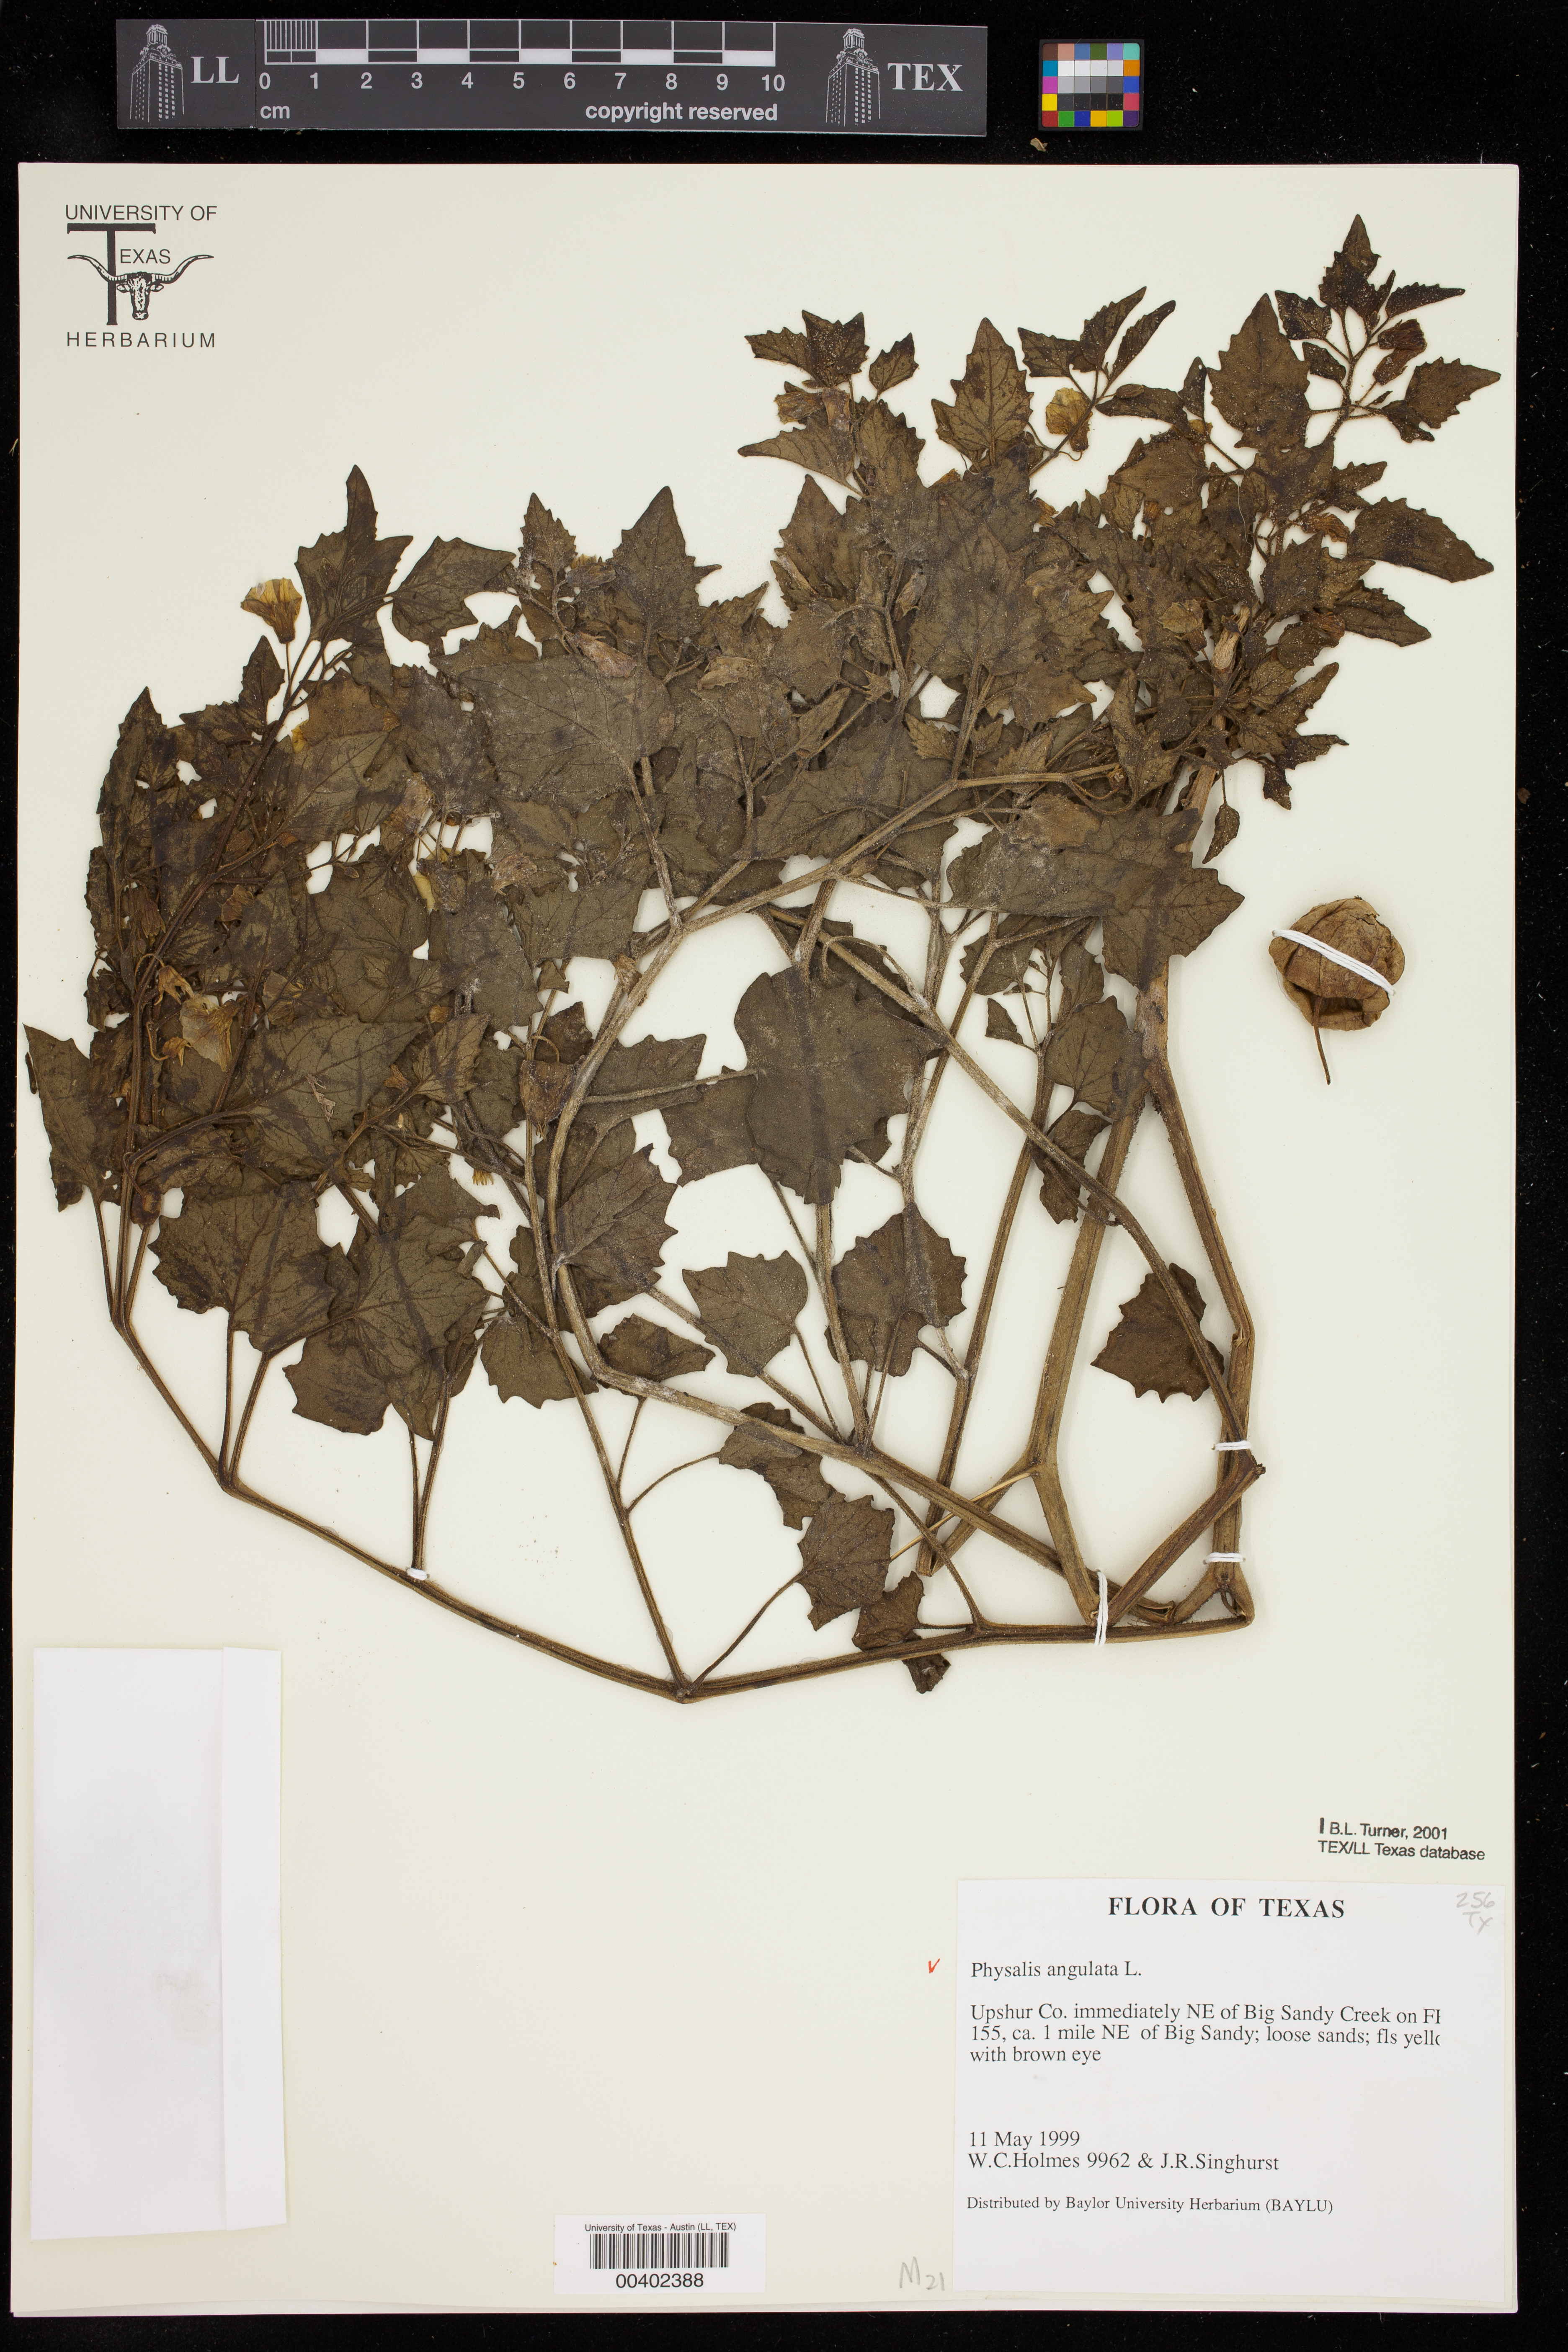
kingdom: Plantae
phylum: Tracheophyta
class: Magnoliopsida
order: Solanales
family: Solanaceae
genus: Physalis
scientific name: Physalis angulata
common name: Angular winter-cherry
